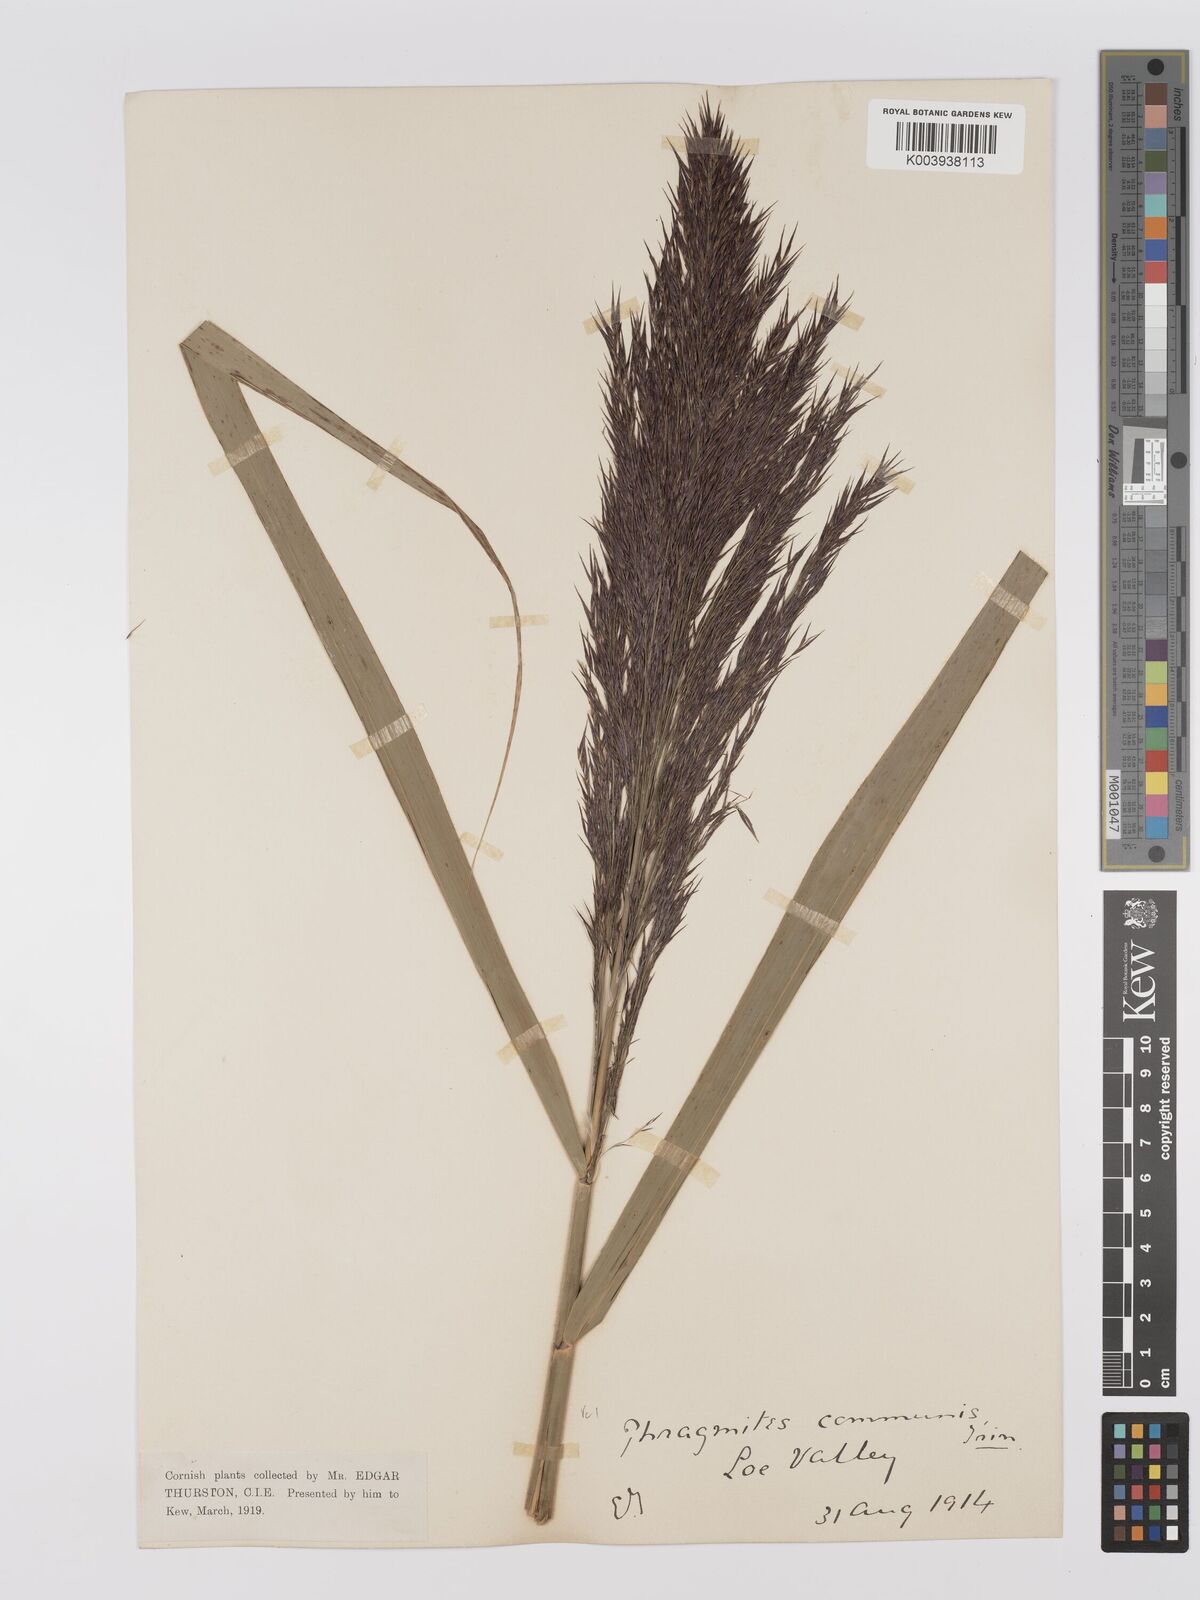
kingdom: Plantae
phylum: Tracheophyta
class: Liliopsida
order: Poales
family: Poaceae
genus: Phragmites
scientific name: Phragmites australis
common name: Common reed
